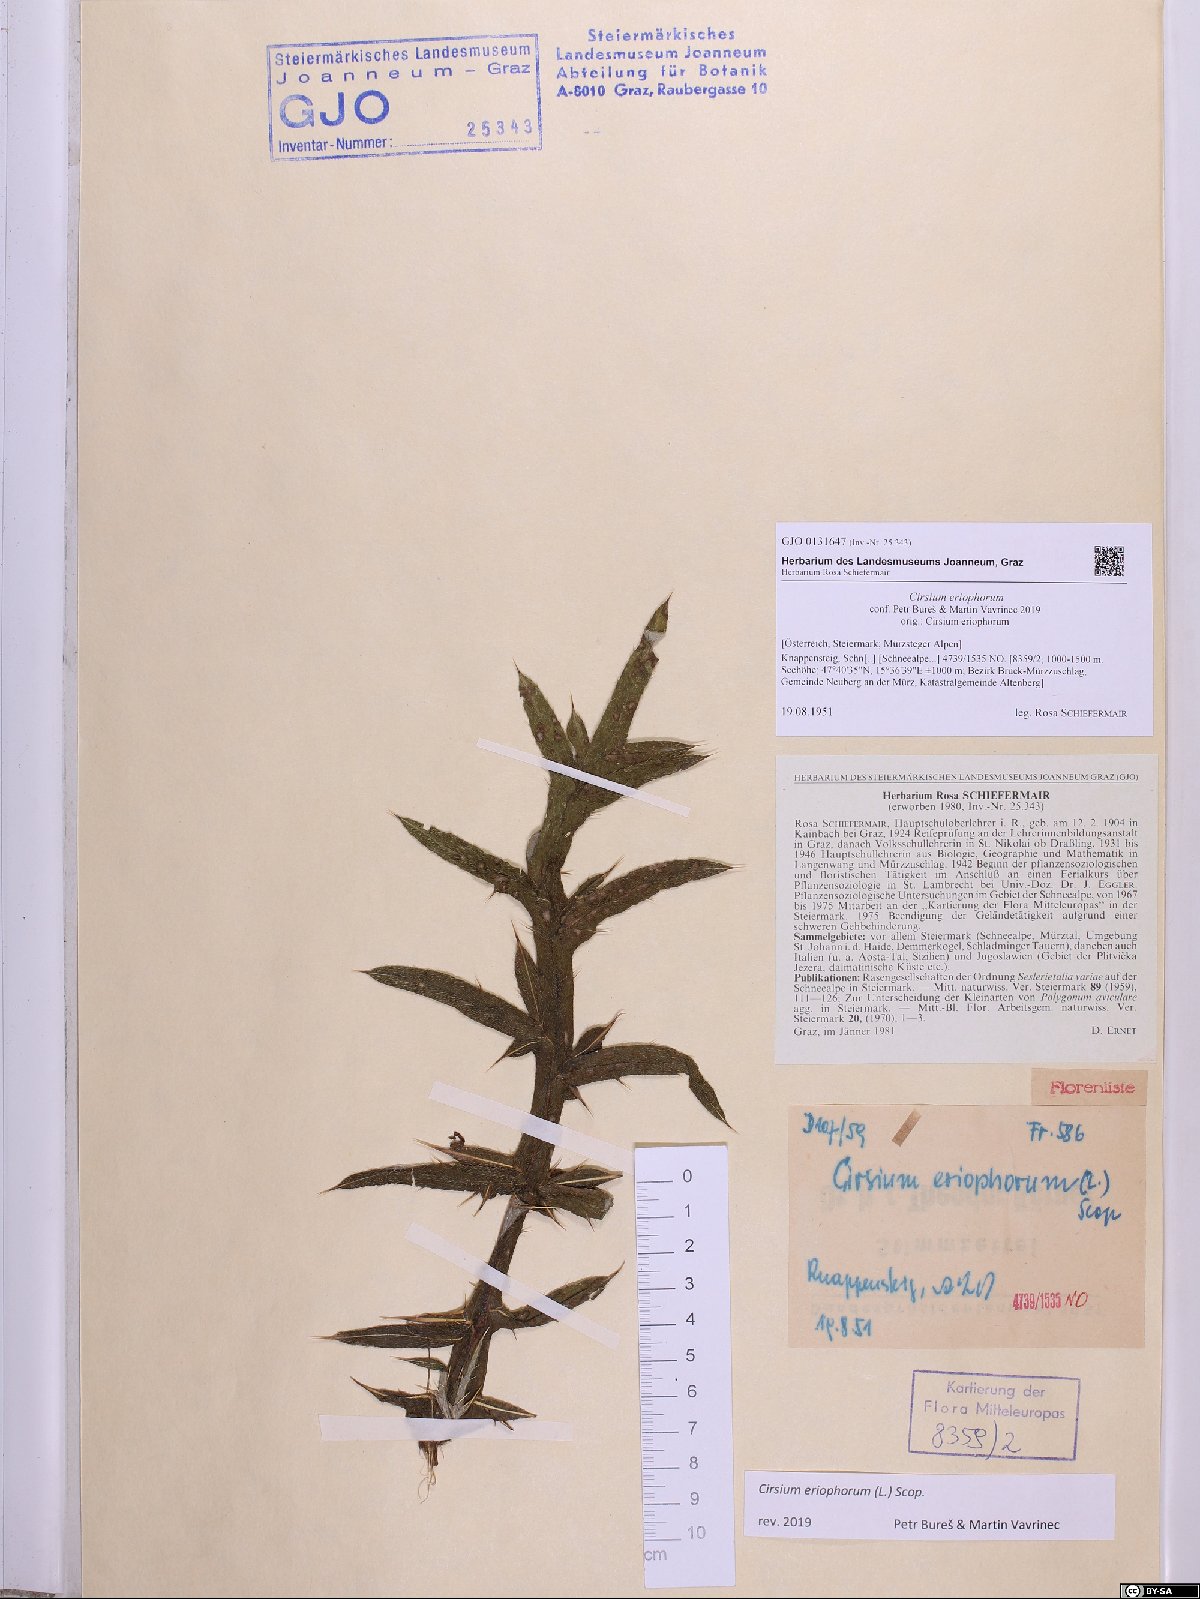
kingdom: Plantae
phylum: Tracheophyta
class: Magnoliopsida
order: Asterales
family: Asteraceae
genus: Lophiolepis
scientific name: Lophiolepis eriophora
